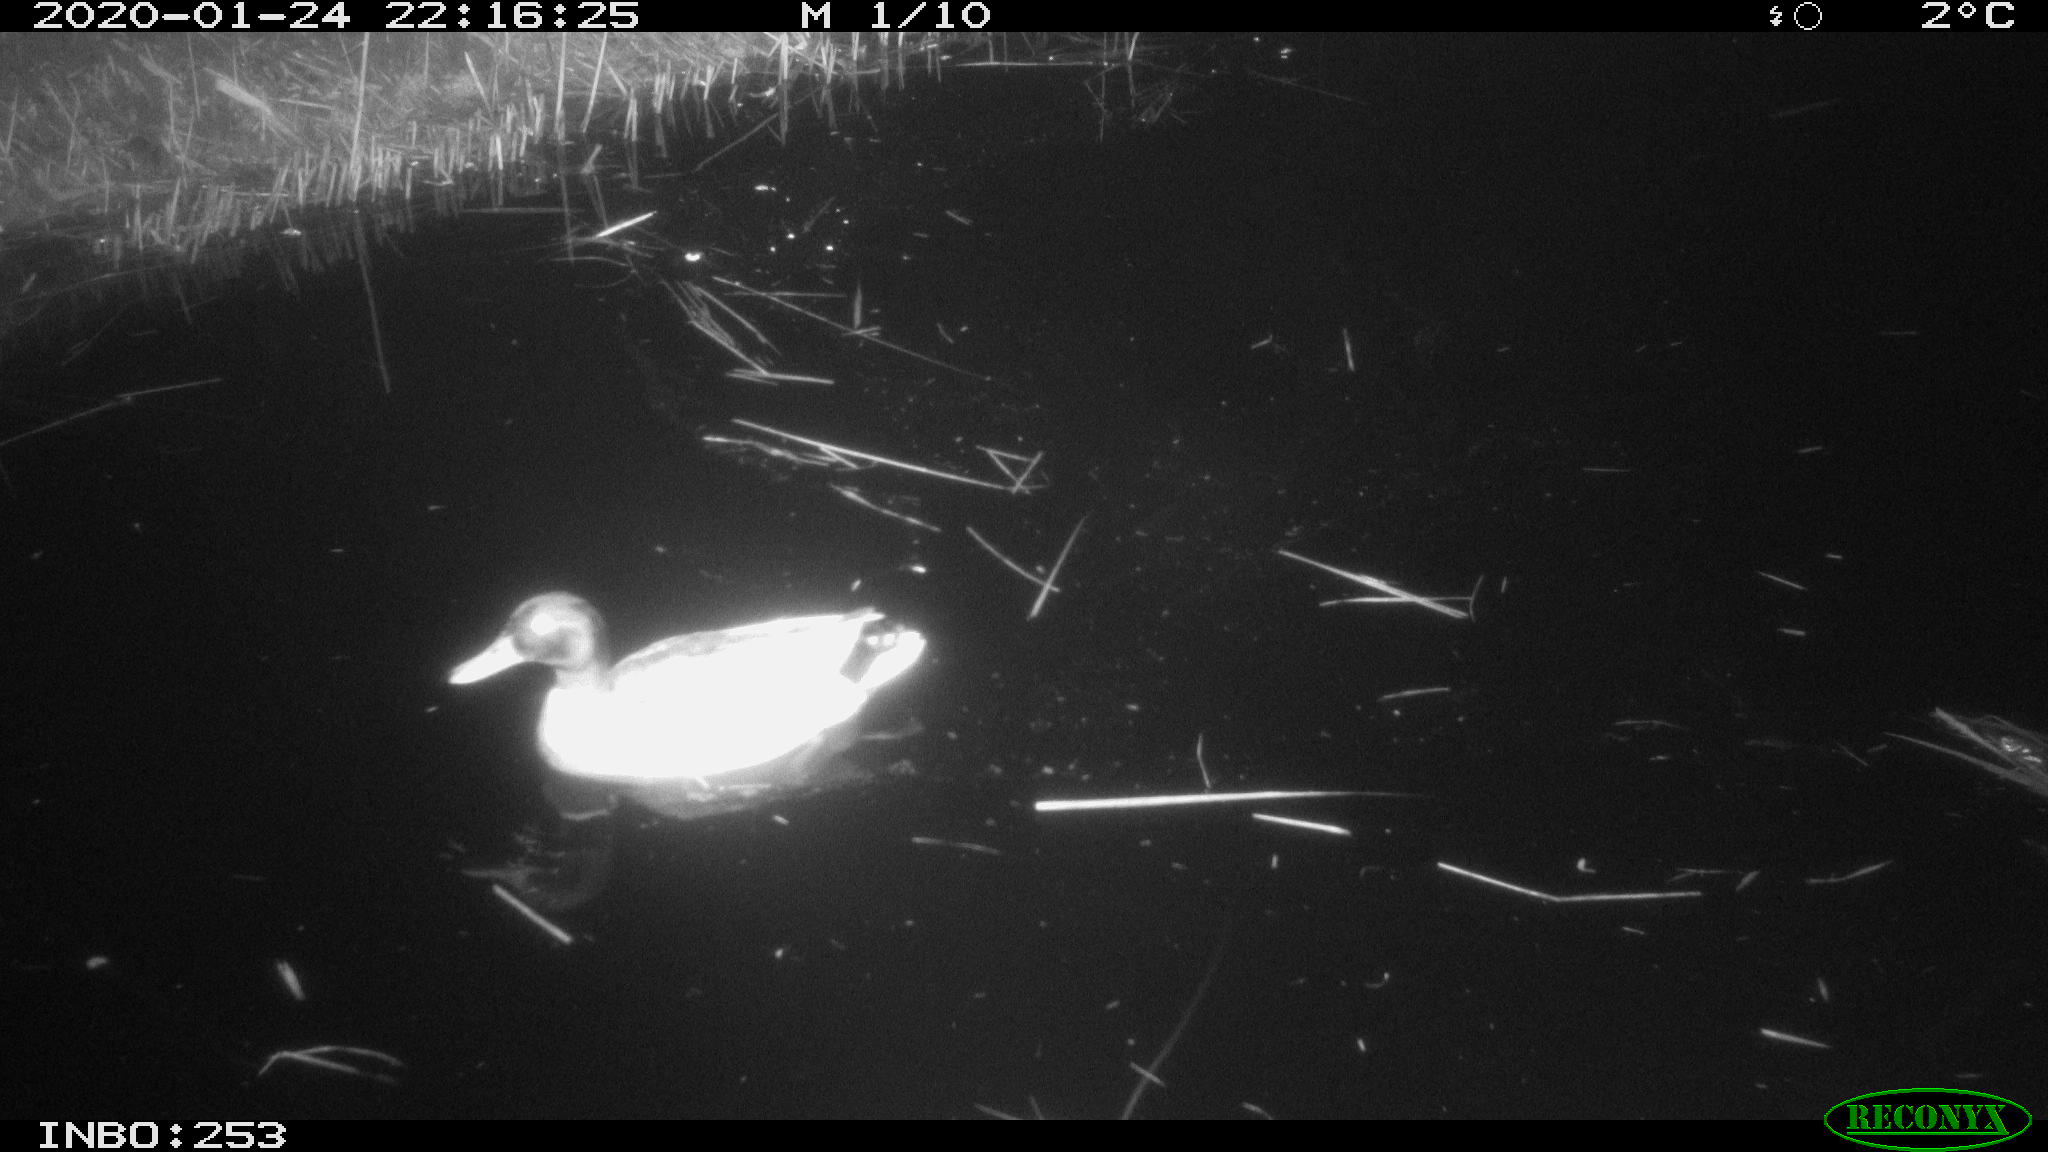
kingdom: Animalia
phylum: Chordata
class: Aves
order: Anseriformes
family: Anatidae
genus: Anas
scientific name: Anas platyrhynchos
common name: Mallard
